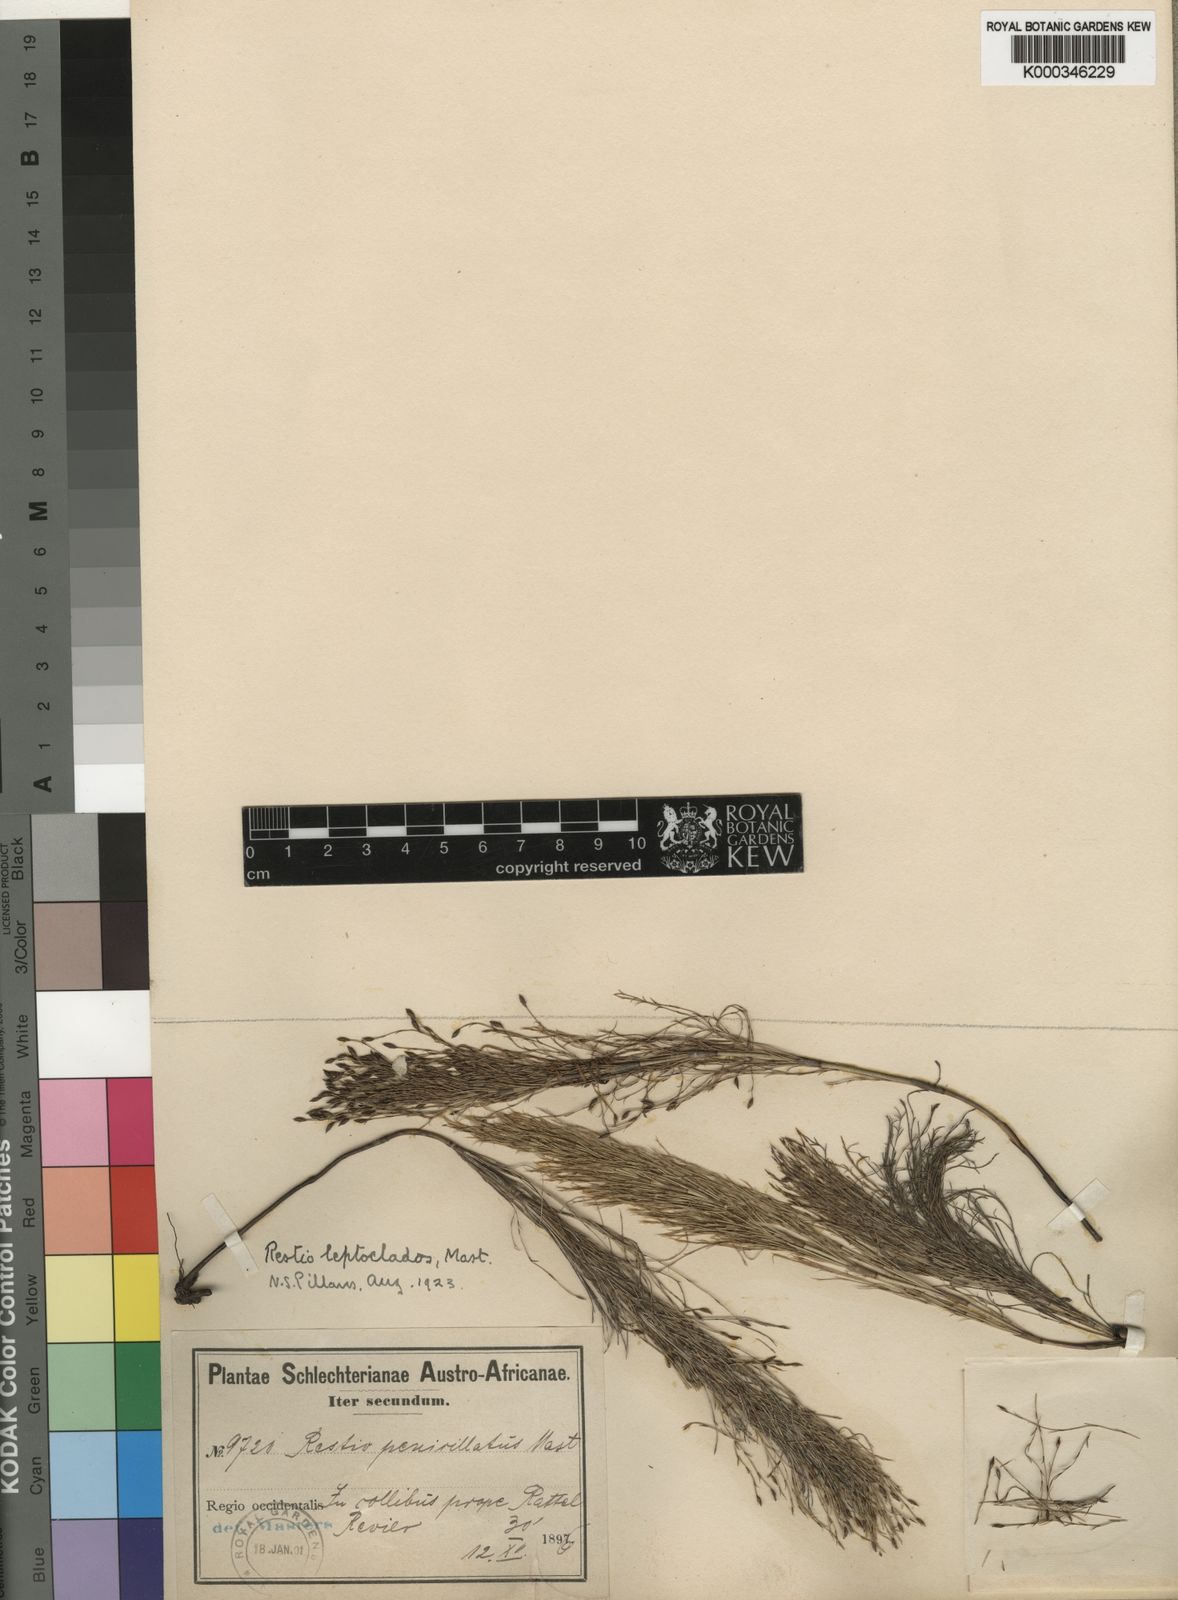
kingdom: Plantae
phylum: Tracheophyta
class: Liliopsida
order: Poales
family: Restionaceae
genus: Restio
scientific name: Restio leptoclados
